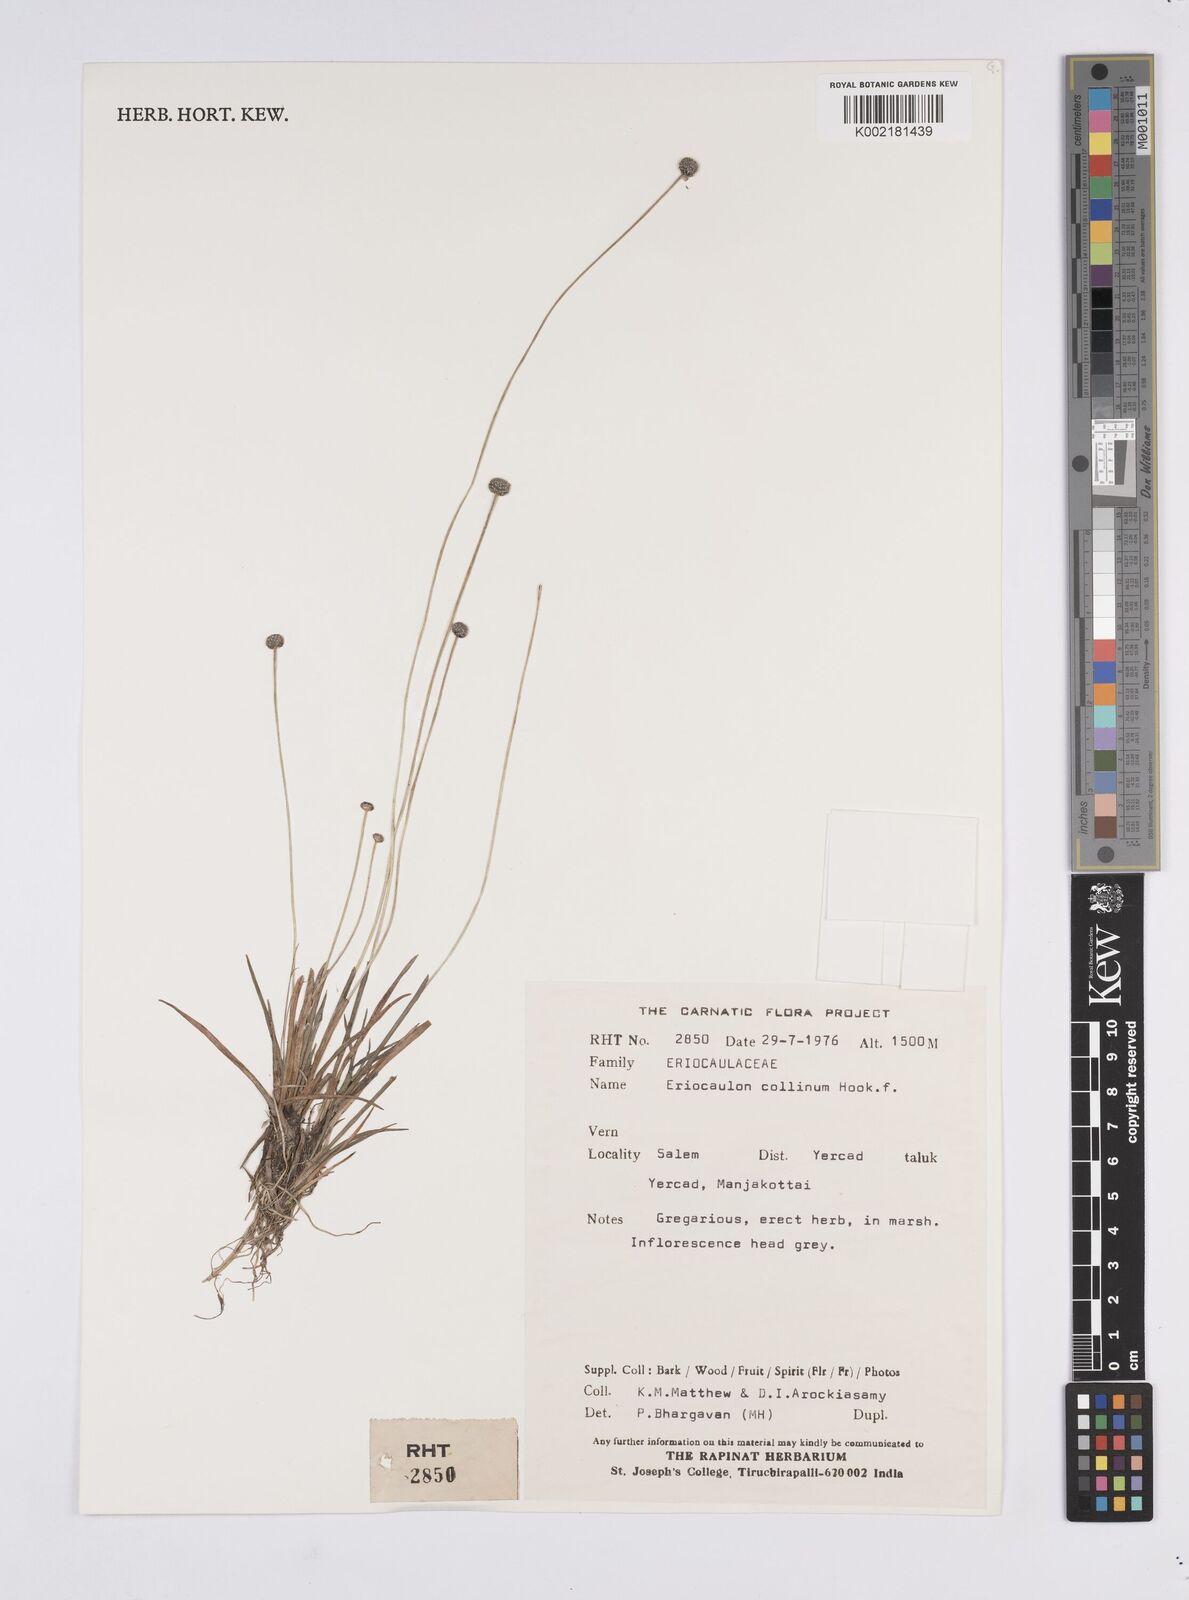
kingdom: Plantae
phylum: Tracheophyta
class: Liliopsida
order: Poales
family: Eriocaulaceae
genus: Eriocaulon
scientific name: Eriocaulon odoratum
